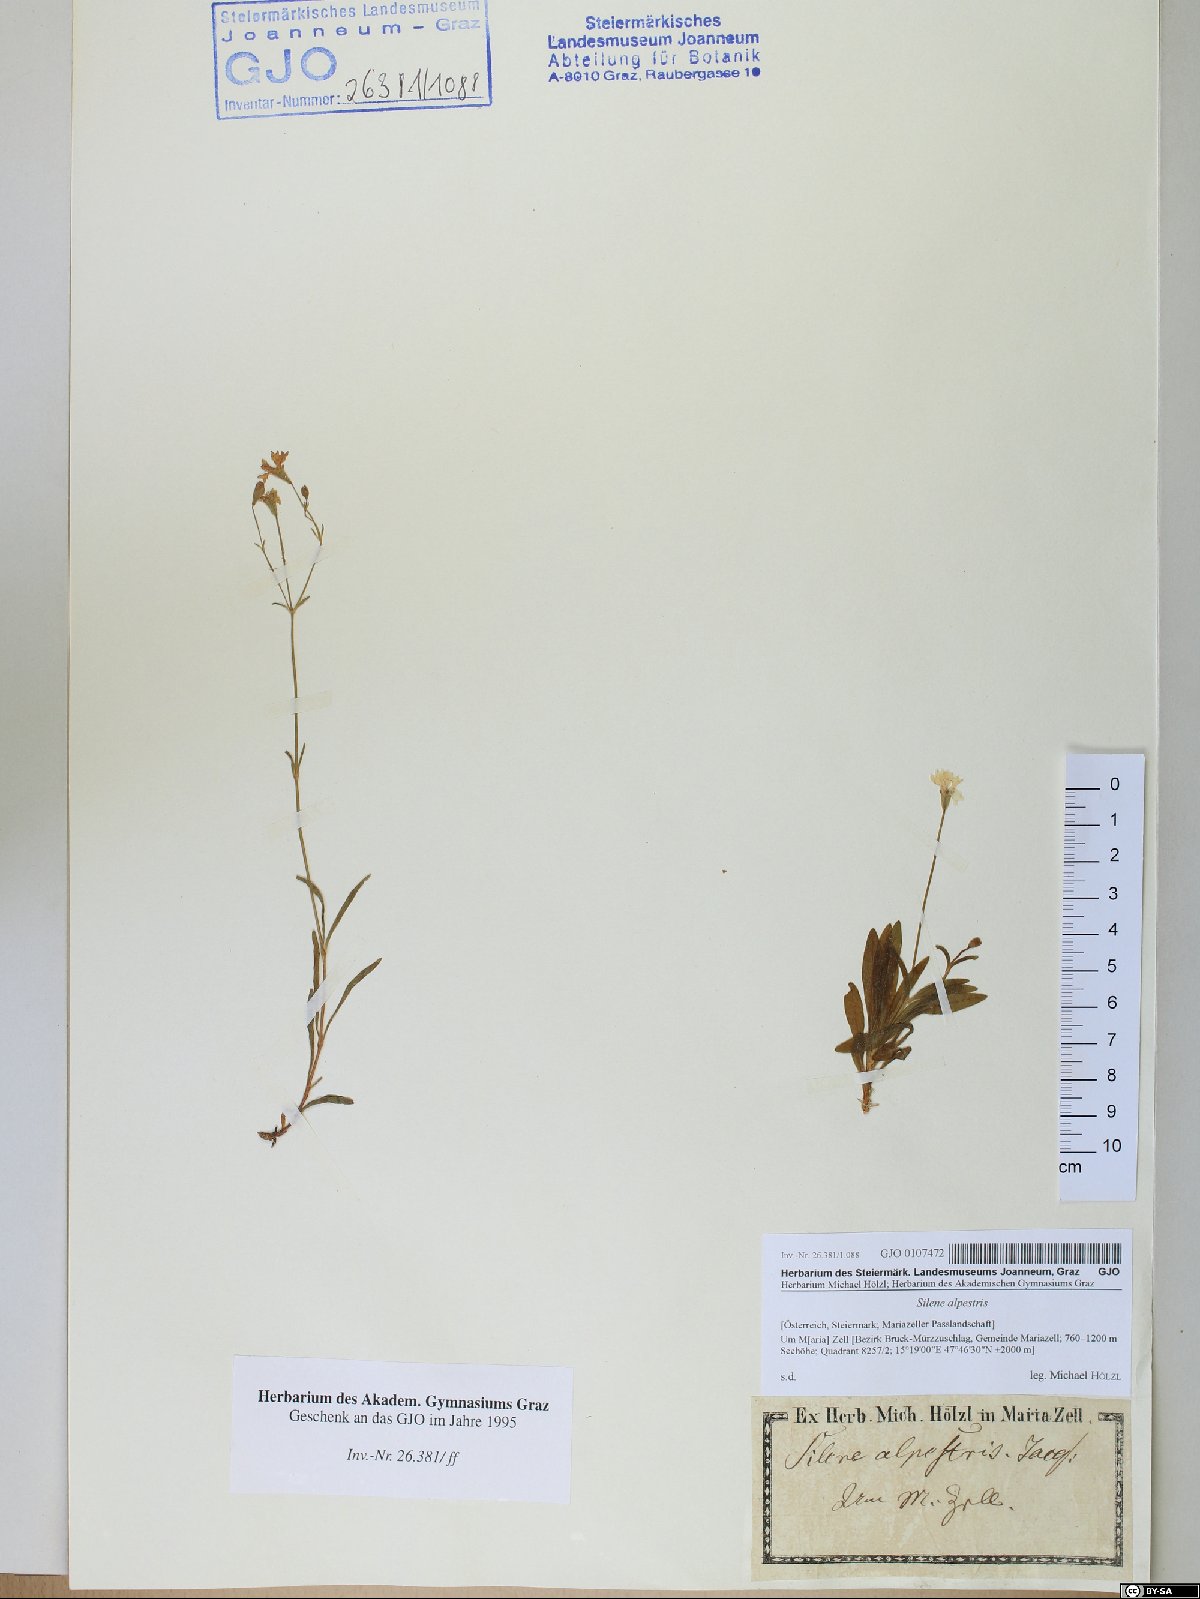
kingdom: Plantae
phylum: Tracheophyta
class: Magnoliopsida
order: Caryophyllales
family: Caryophyllaceae
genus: Heliosperma
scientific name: Heliosperma alpestre
